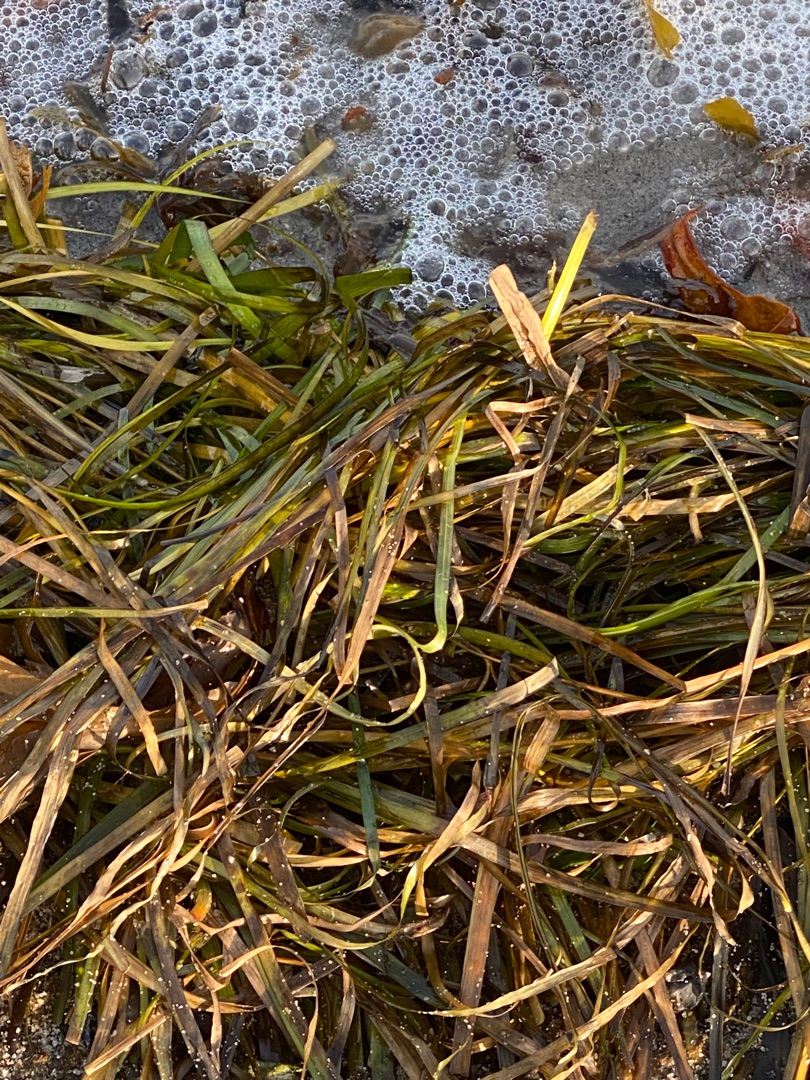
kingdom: Plantae
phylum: Tracheophyta
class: Liliopsida
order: Alismatales
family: Zosteraceae
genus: Zostera
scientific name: Zostera marina
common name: Almindelig bændeltang
